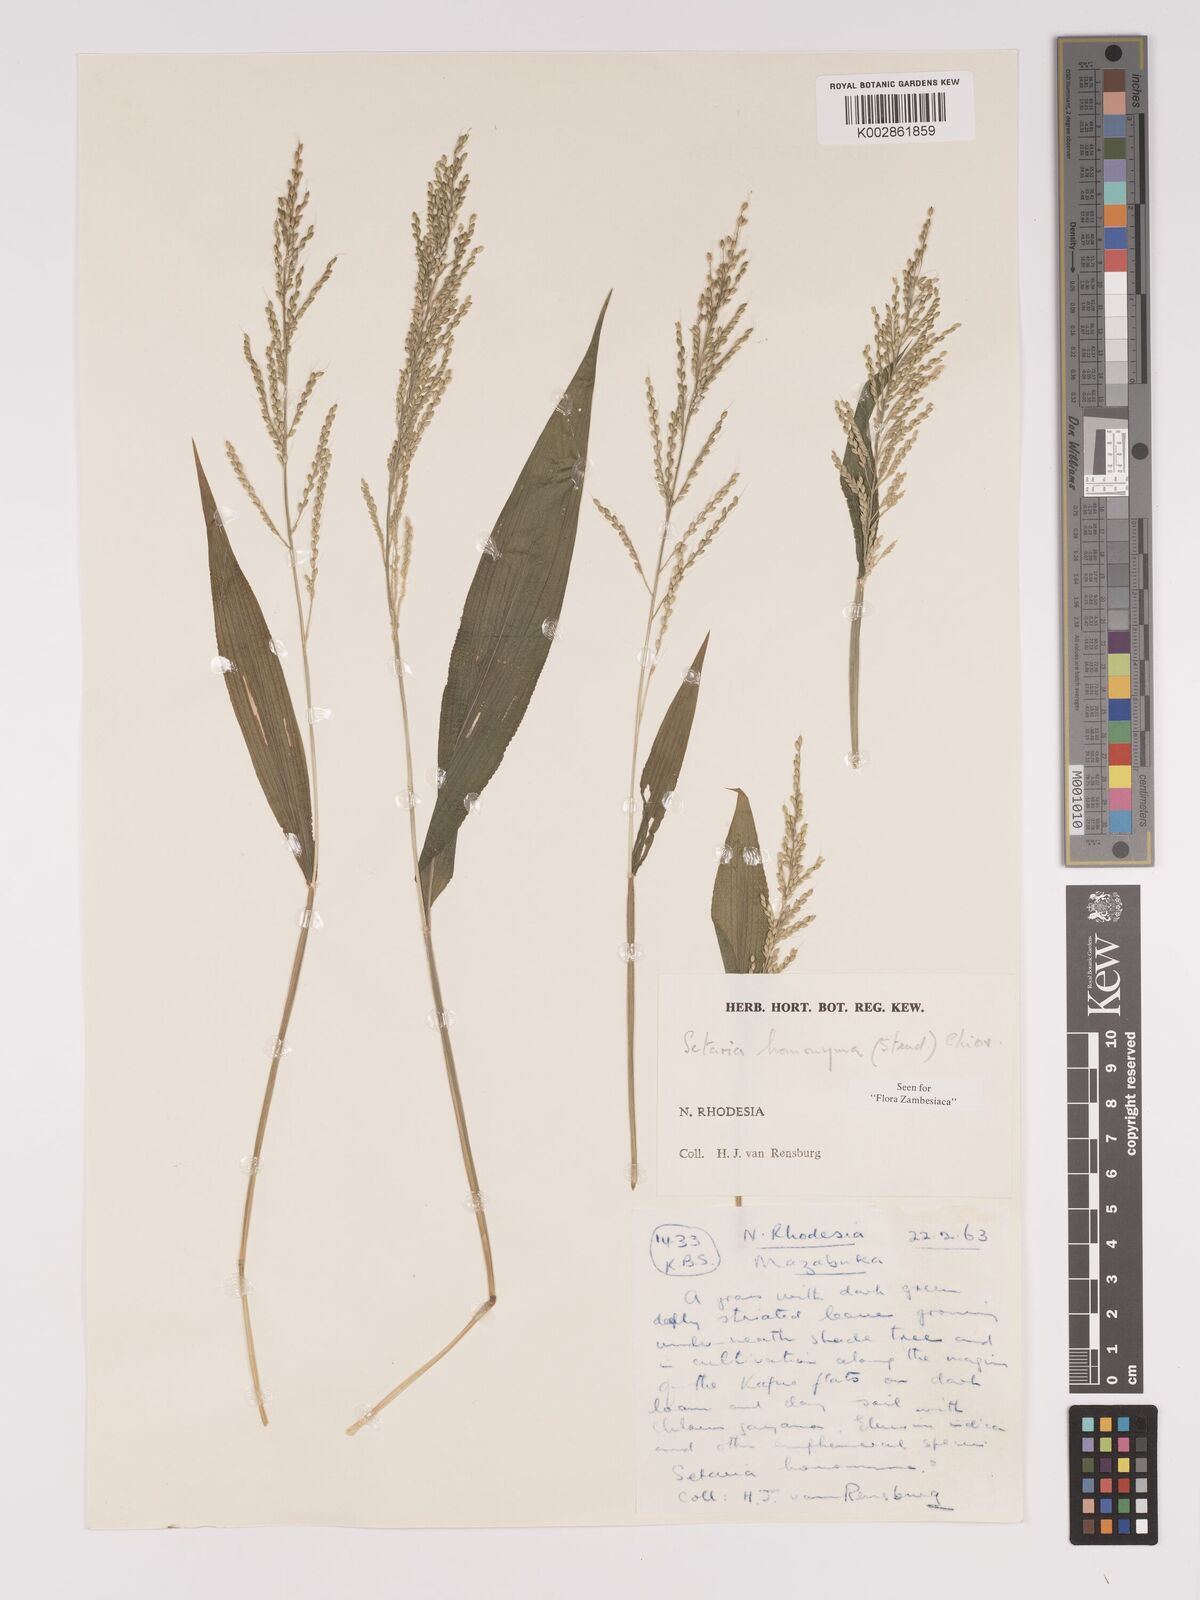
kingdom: Plantae
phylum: Tracheophyta
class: Liliopsida
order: Poales
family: Poaceae
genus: Setaria
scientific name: Setaria homonyma
